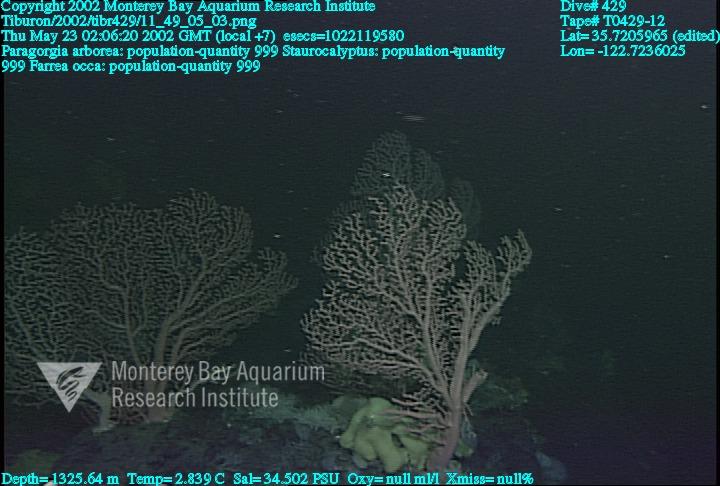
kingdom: Animalia
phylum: Porifera
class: Hexactinellida
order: Sceptrulophora
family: Farreidae
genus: Farrea
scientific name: Farrea occa
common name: Reversed glass sponge
